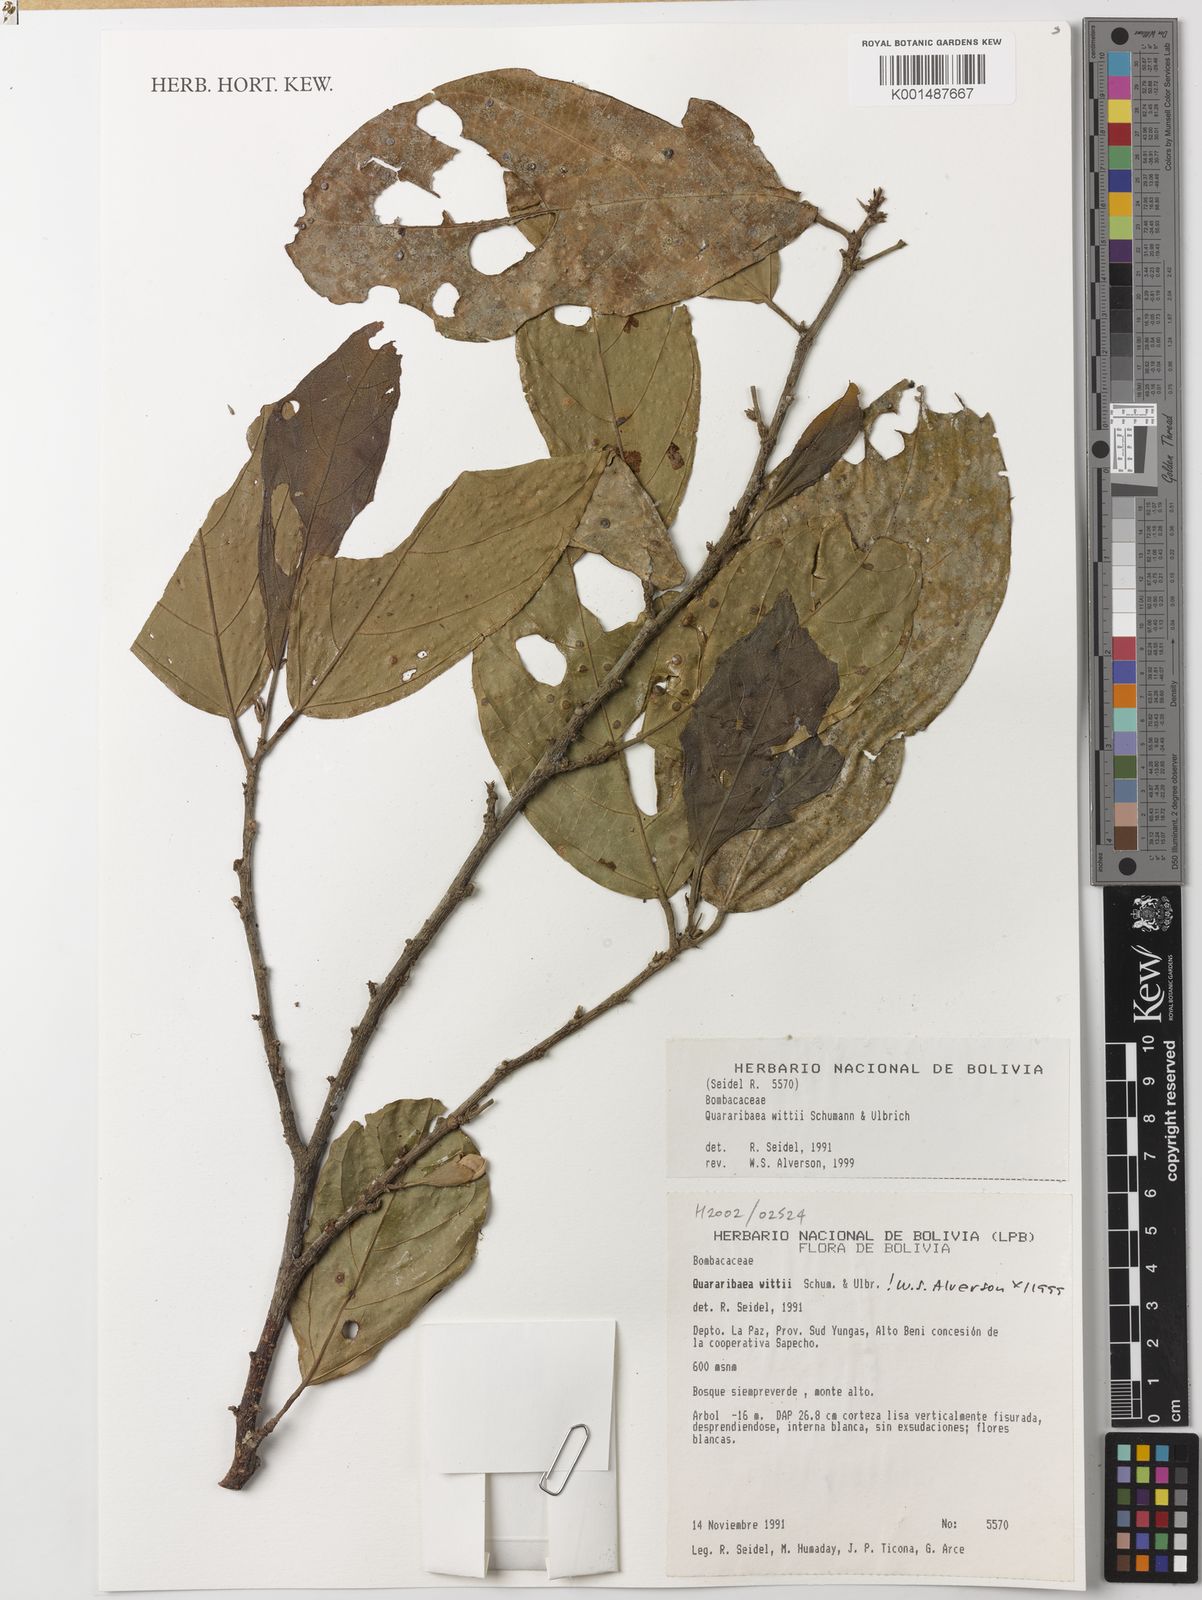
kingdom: Plantae
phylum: Tracheophyta
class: Magnoliopsida
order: Malvales
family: Malvaceae
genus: Quararibea
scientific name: Quararibea wittii
